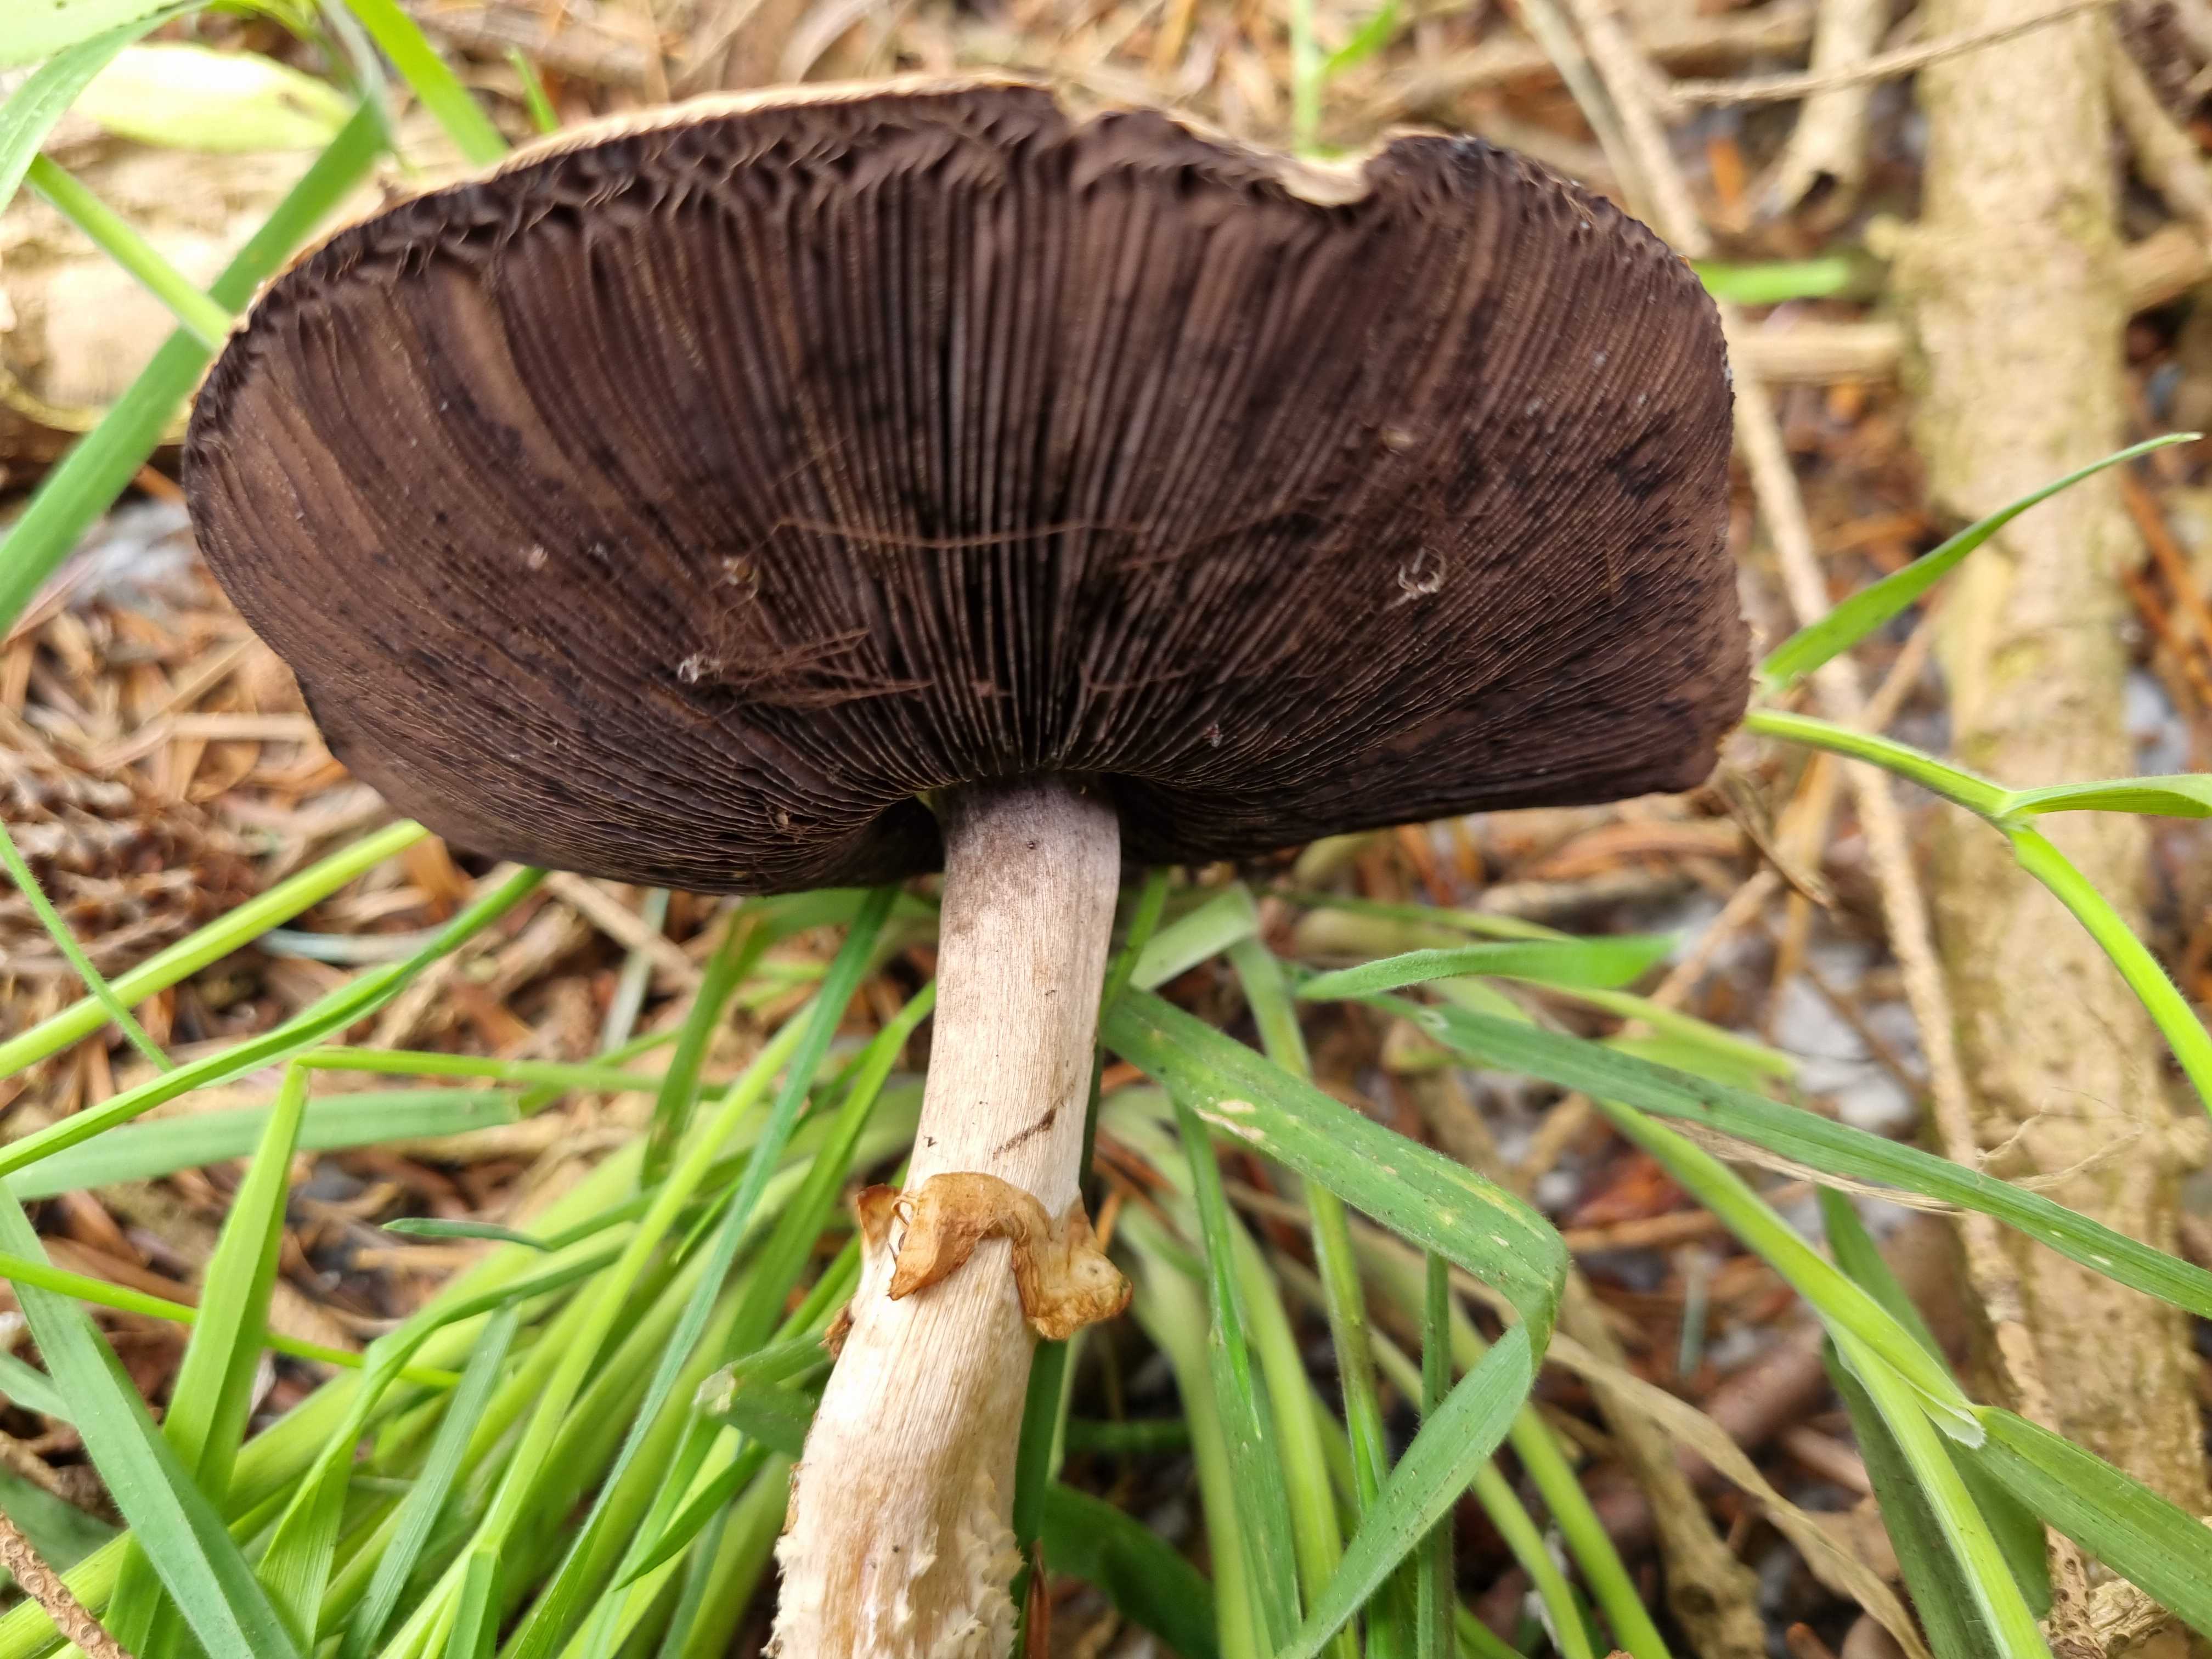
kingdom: Fungi
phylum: Basidiomycota
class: Agaricomycetes
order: Agaricales
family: Agaricaceae
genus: Agaricus
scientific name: Agaricus
